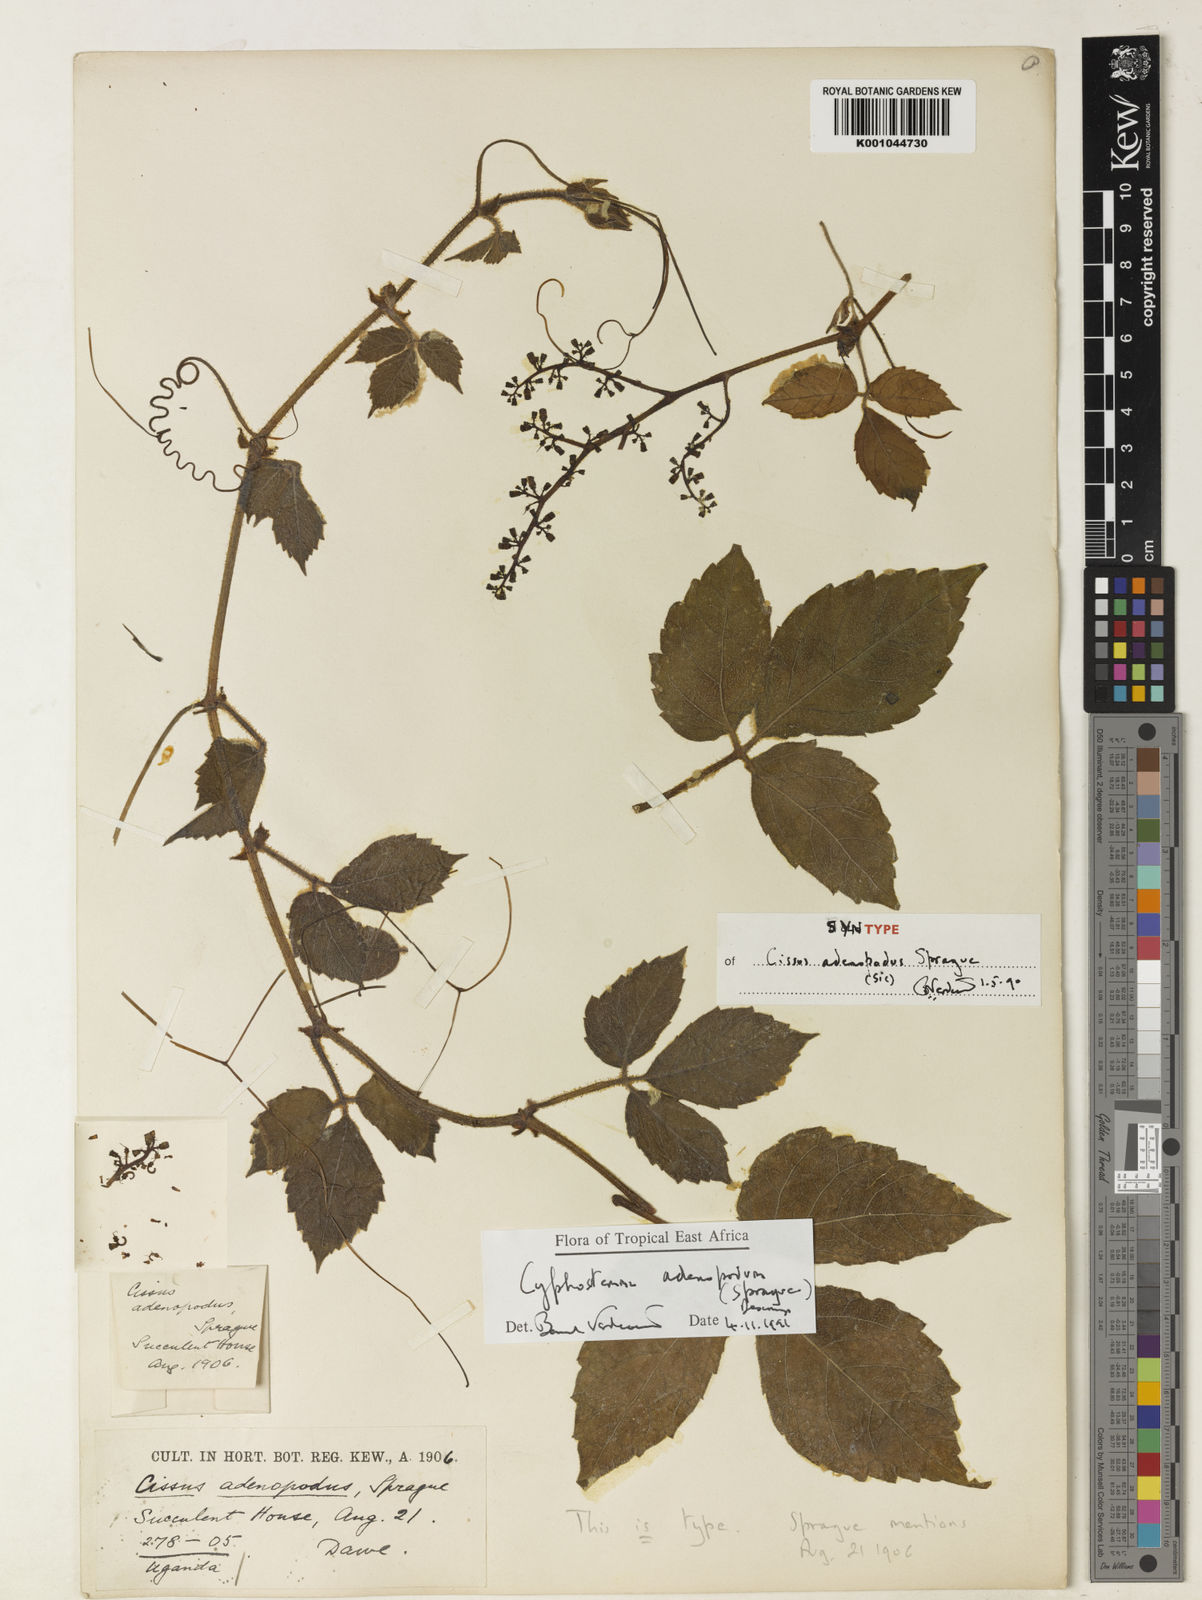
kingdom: Plantae
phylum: Tracheophyta
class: Magnoliopsida
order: Vitales
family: Vitaceae
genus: Cyphostemma
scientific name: Cyphostemma adenopodum
